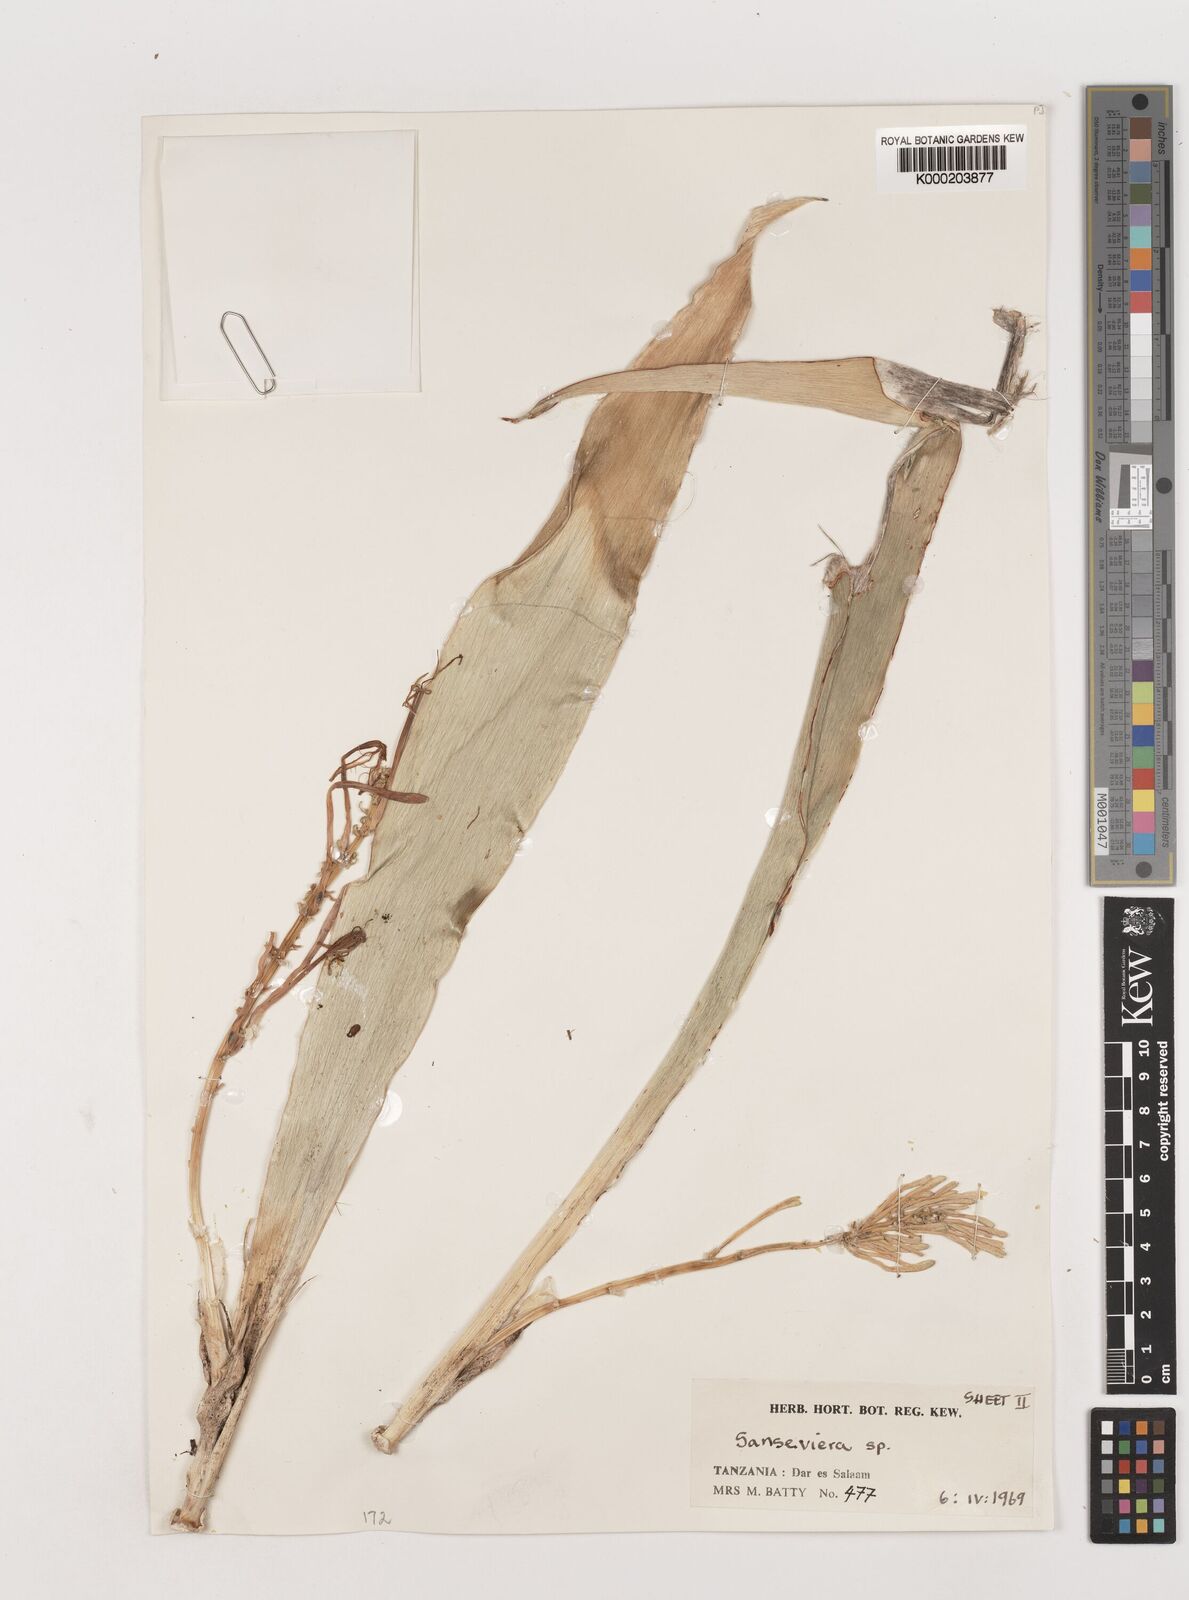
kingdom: Plantae
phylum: Tracheophyta
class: Liliopsida
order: Asparagales
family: Asparagaceae
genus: Dracaena
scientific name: Dracaena conspicua
